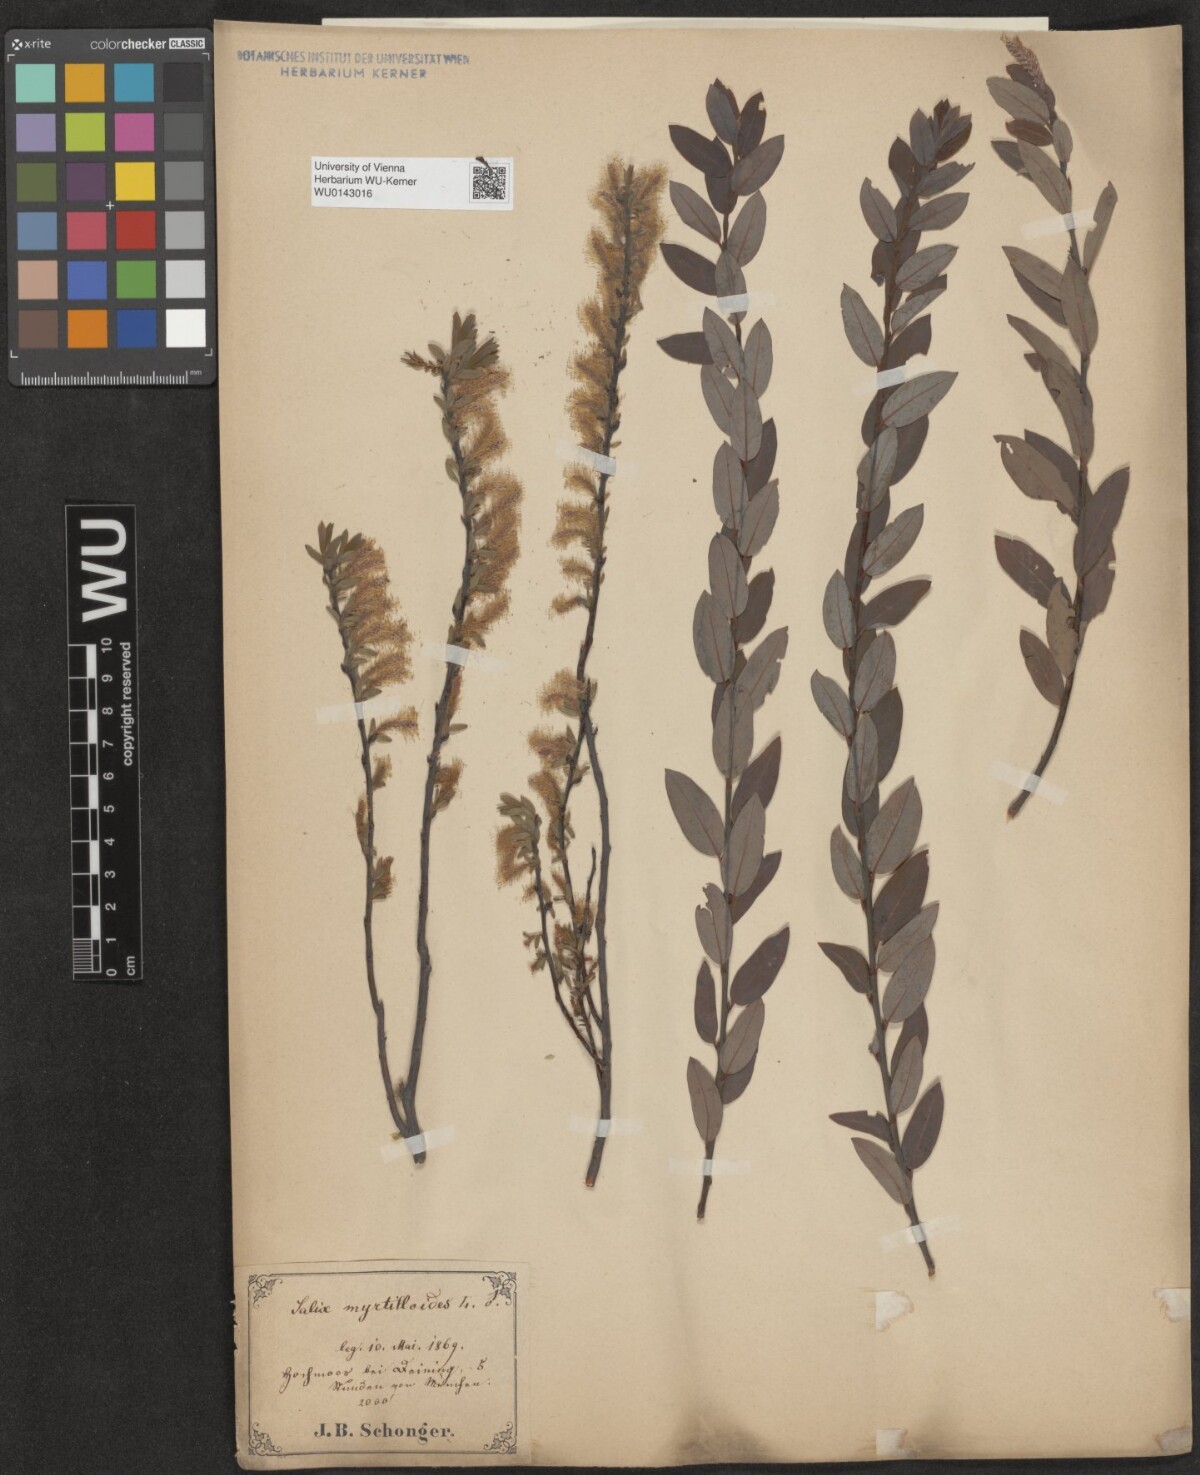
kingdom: Plantae
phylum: Tracheophyta
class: Magnoliopsida
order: Malpighiales
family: Salicaceae
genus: Salix
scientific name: Salix myrtilloides
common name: Myrtle-leaved willow
